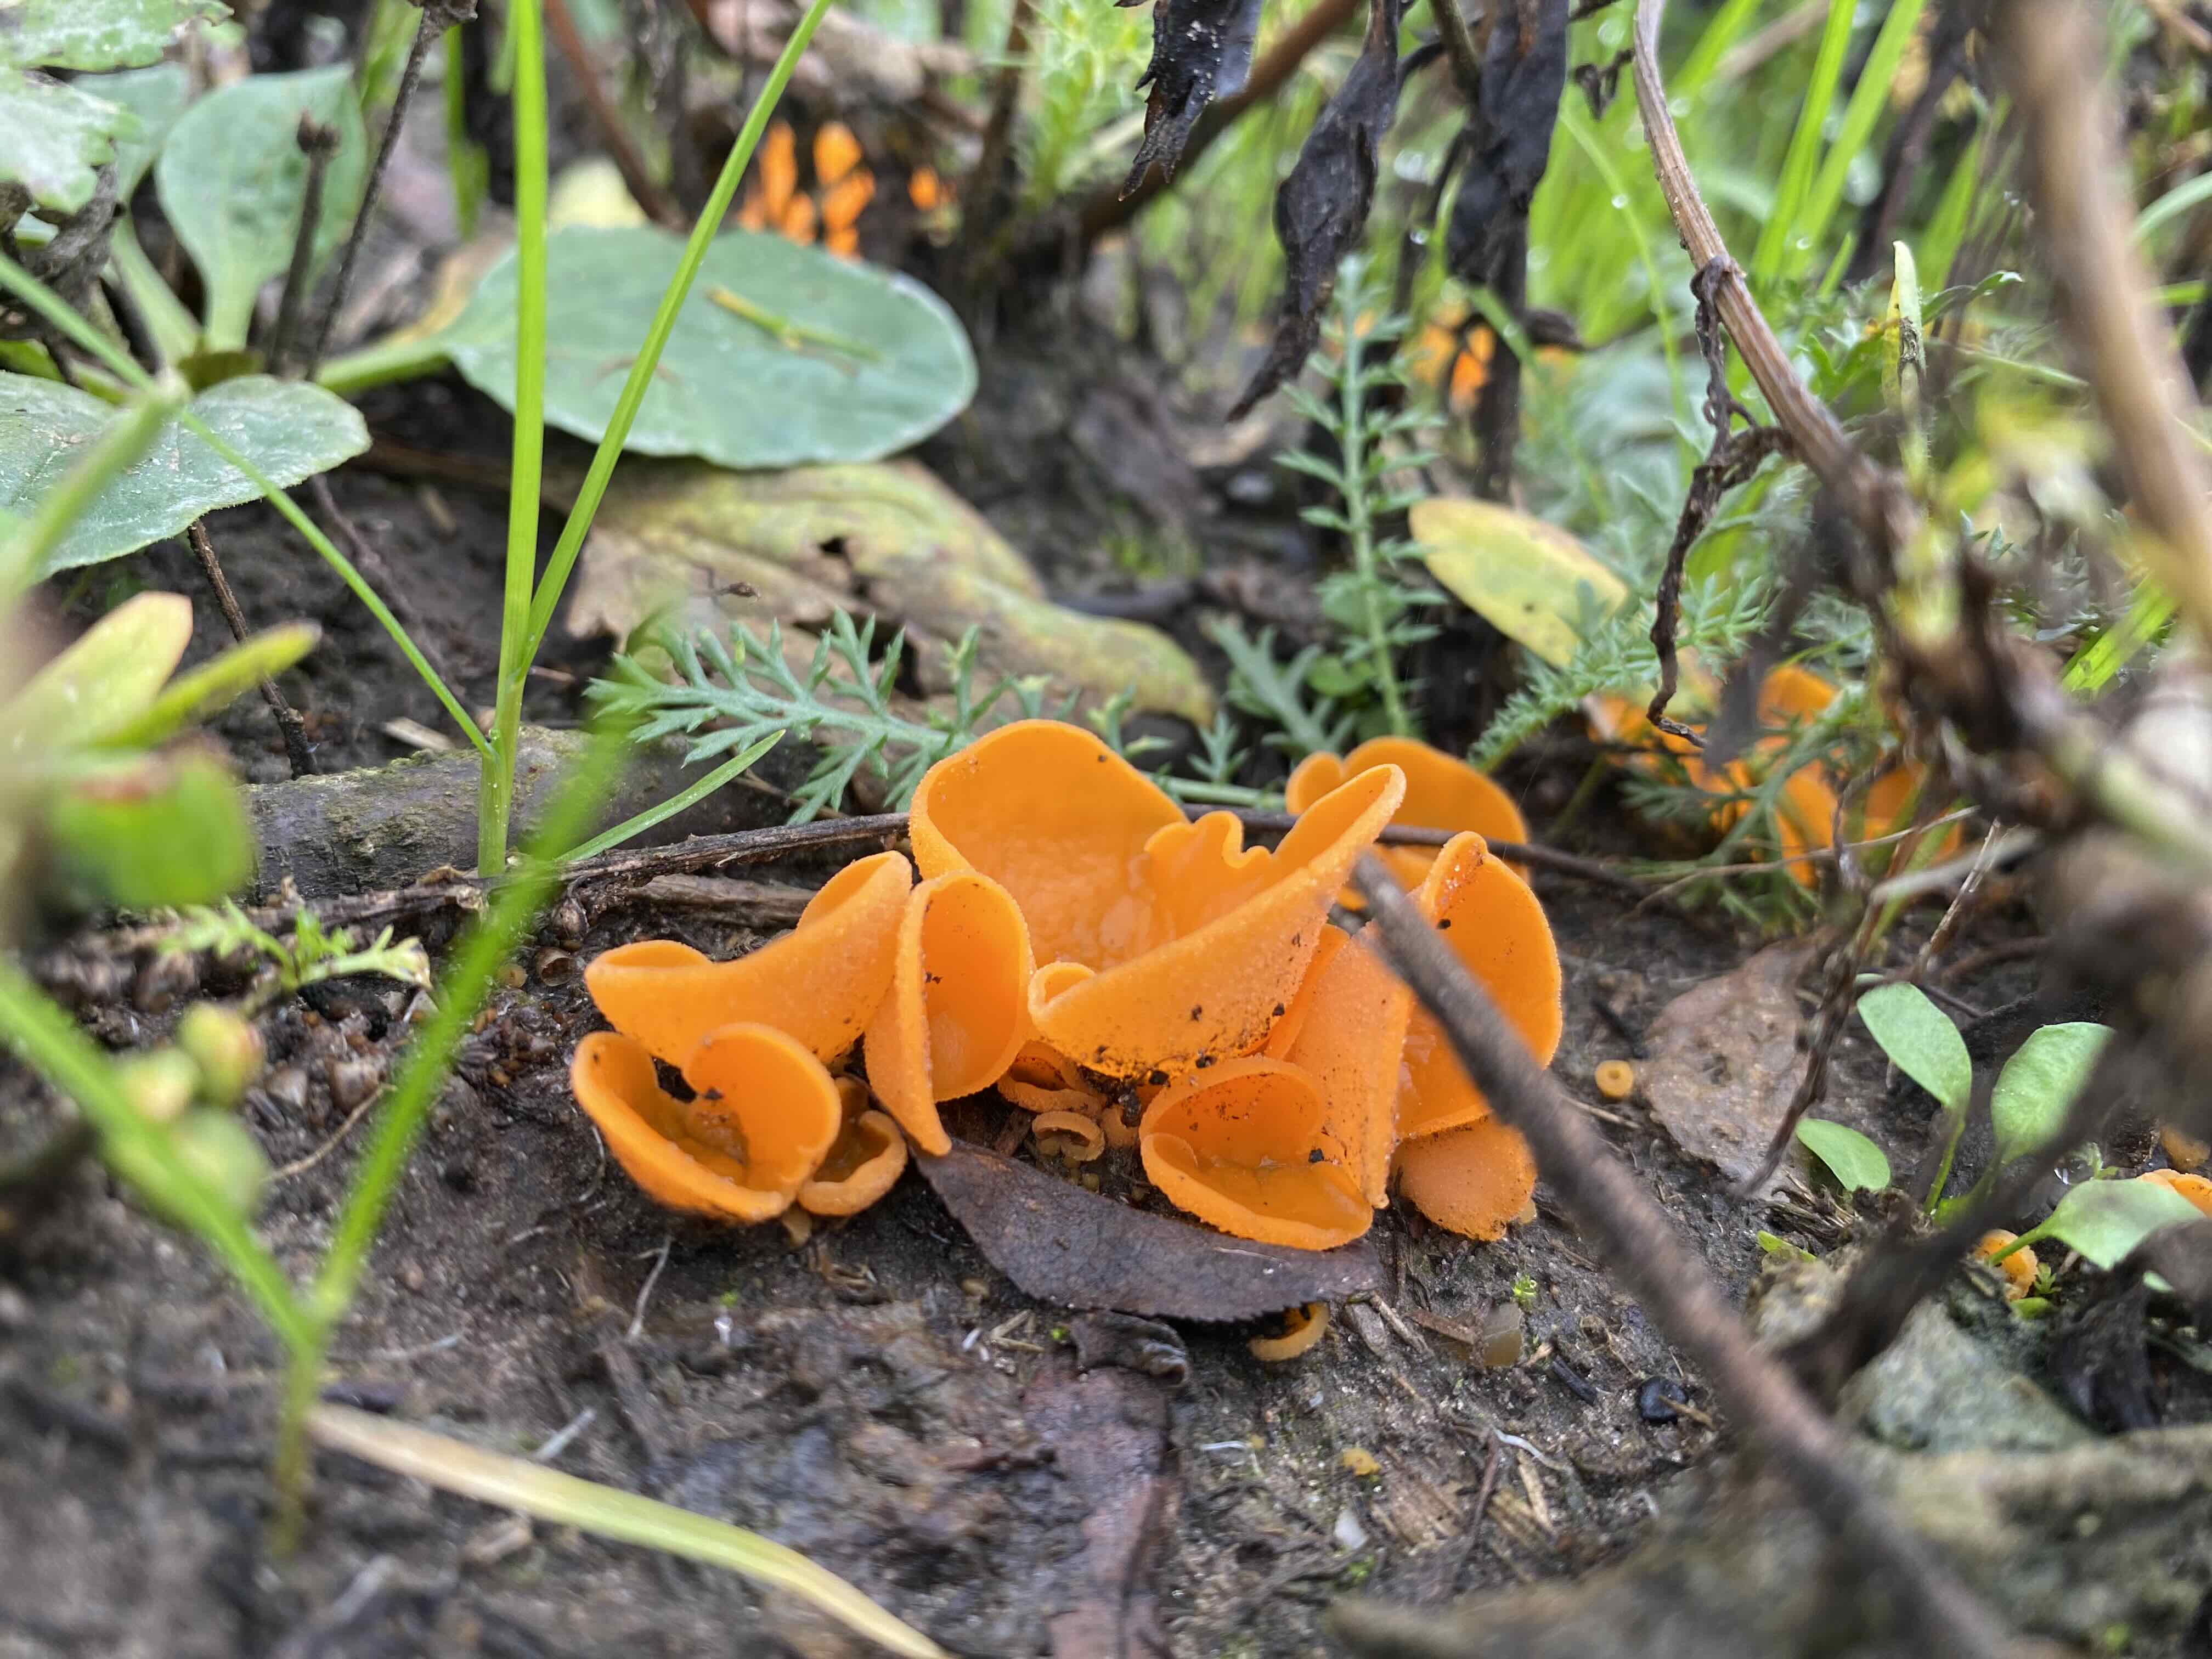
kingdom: Fungi
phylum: Ascomycota
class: Pezizomycetes
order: Pezizales
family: Pyronemataceae
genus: Aleuria
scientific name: Aleuria aurantia
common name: almindelig orangebæger
